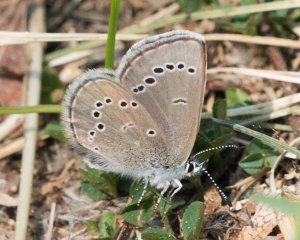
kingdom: Animalia
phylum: Arthropoda
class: Insecta
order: Lepidoptera
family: Lycaenidae
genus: Glaucopsyche
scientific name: Glaucopsyche lygdamus
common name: Silvery Blue
